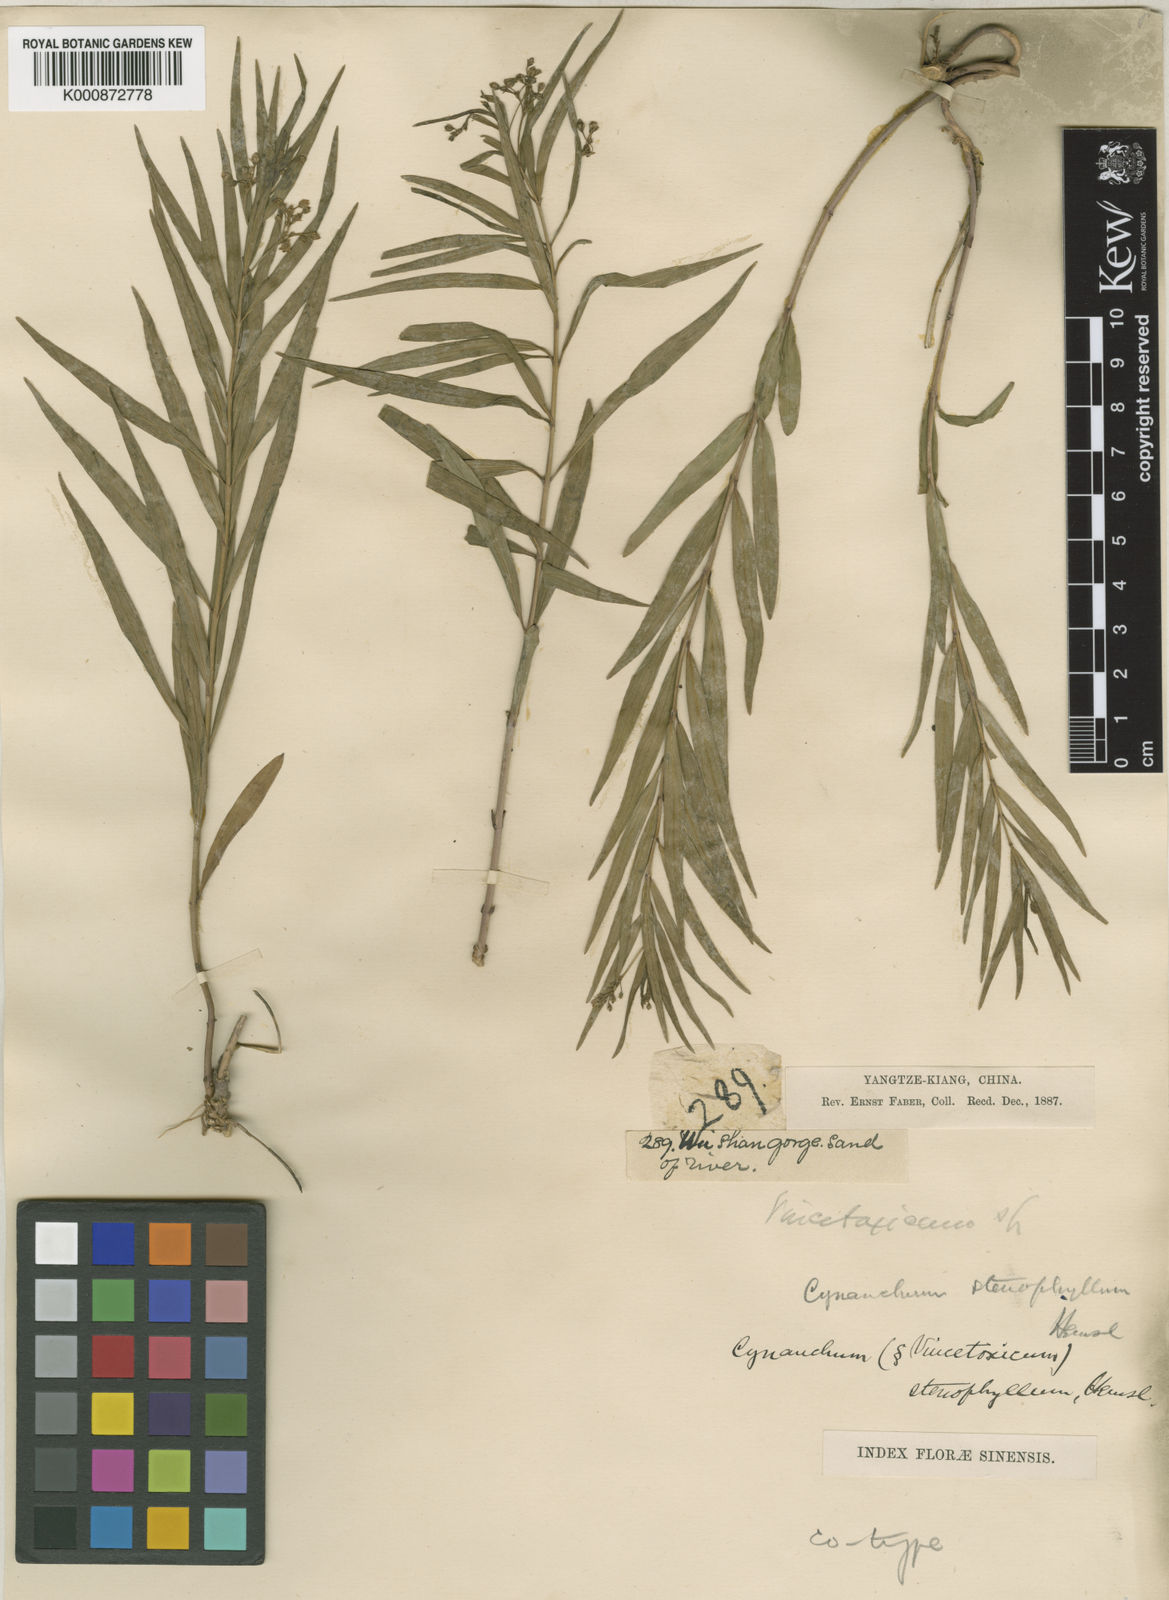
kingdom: Plantae
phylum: Tracheophyta
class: Magnoliopsida
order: Gentianales
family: Apocynaceae
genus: Vincetoxicum
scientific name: Vincetoxicum stenophyllum
